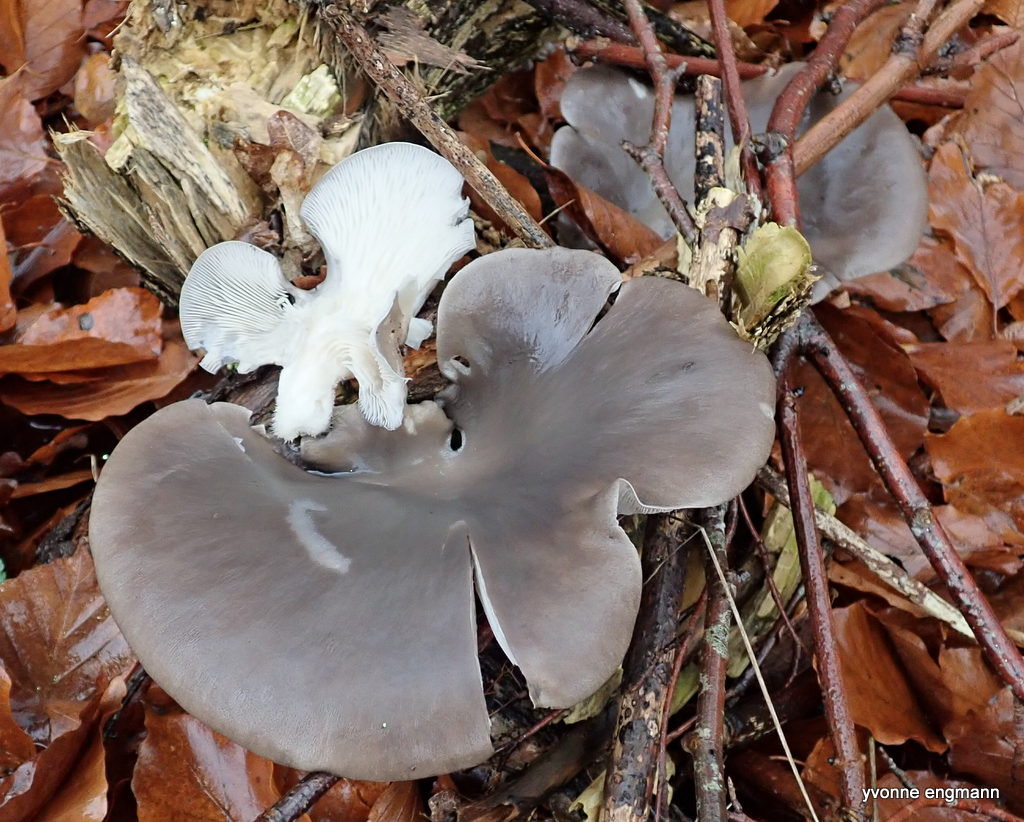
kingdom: Fungi
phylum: Basidiomycota
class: Agaricomycetes
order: Agaricales
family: Pleurotaceae
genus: Pleurotus
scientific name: Pleurotus ostreatus
